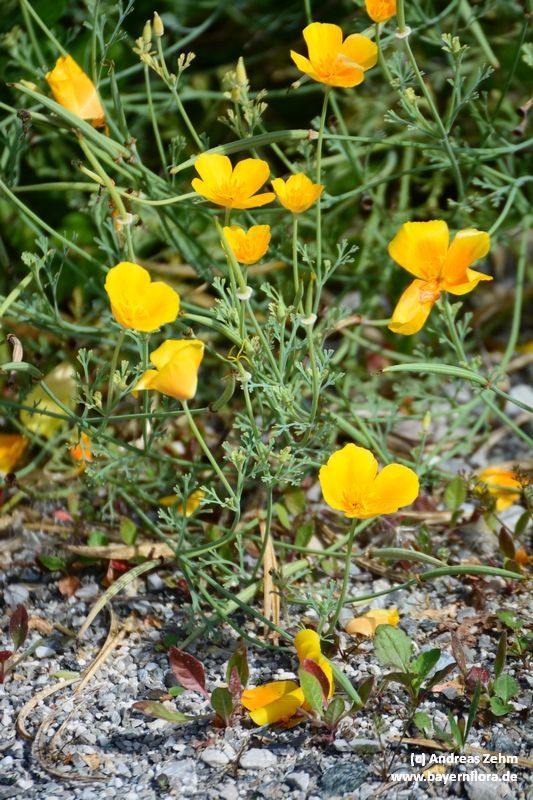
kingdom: Plantae
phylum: Tracheophyta
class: Magnoliopsida
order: Ranunculales
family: Papaveraceae
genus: Eschscholzia
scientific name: Eschscholzia californica
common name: California poppy
